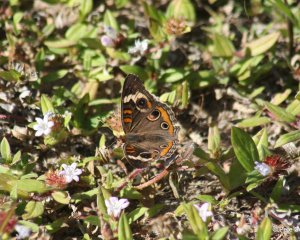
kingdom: Animalia
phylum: Arthropoda
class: Insecta
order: Lepidoptera
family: Nymphalidae
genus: Junonia
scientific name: Junonia coenia
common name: Common Buckeye
